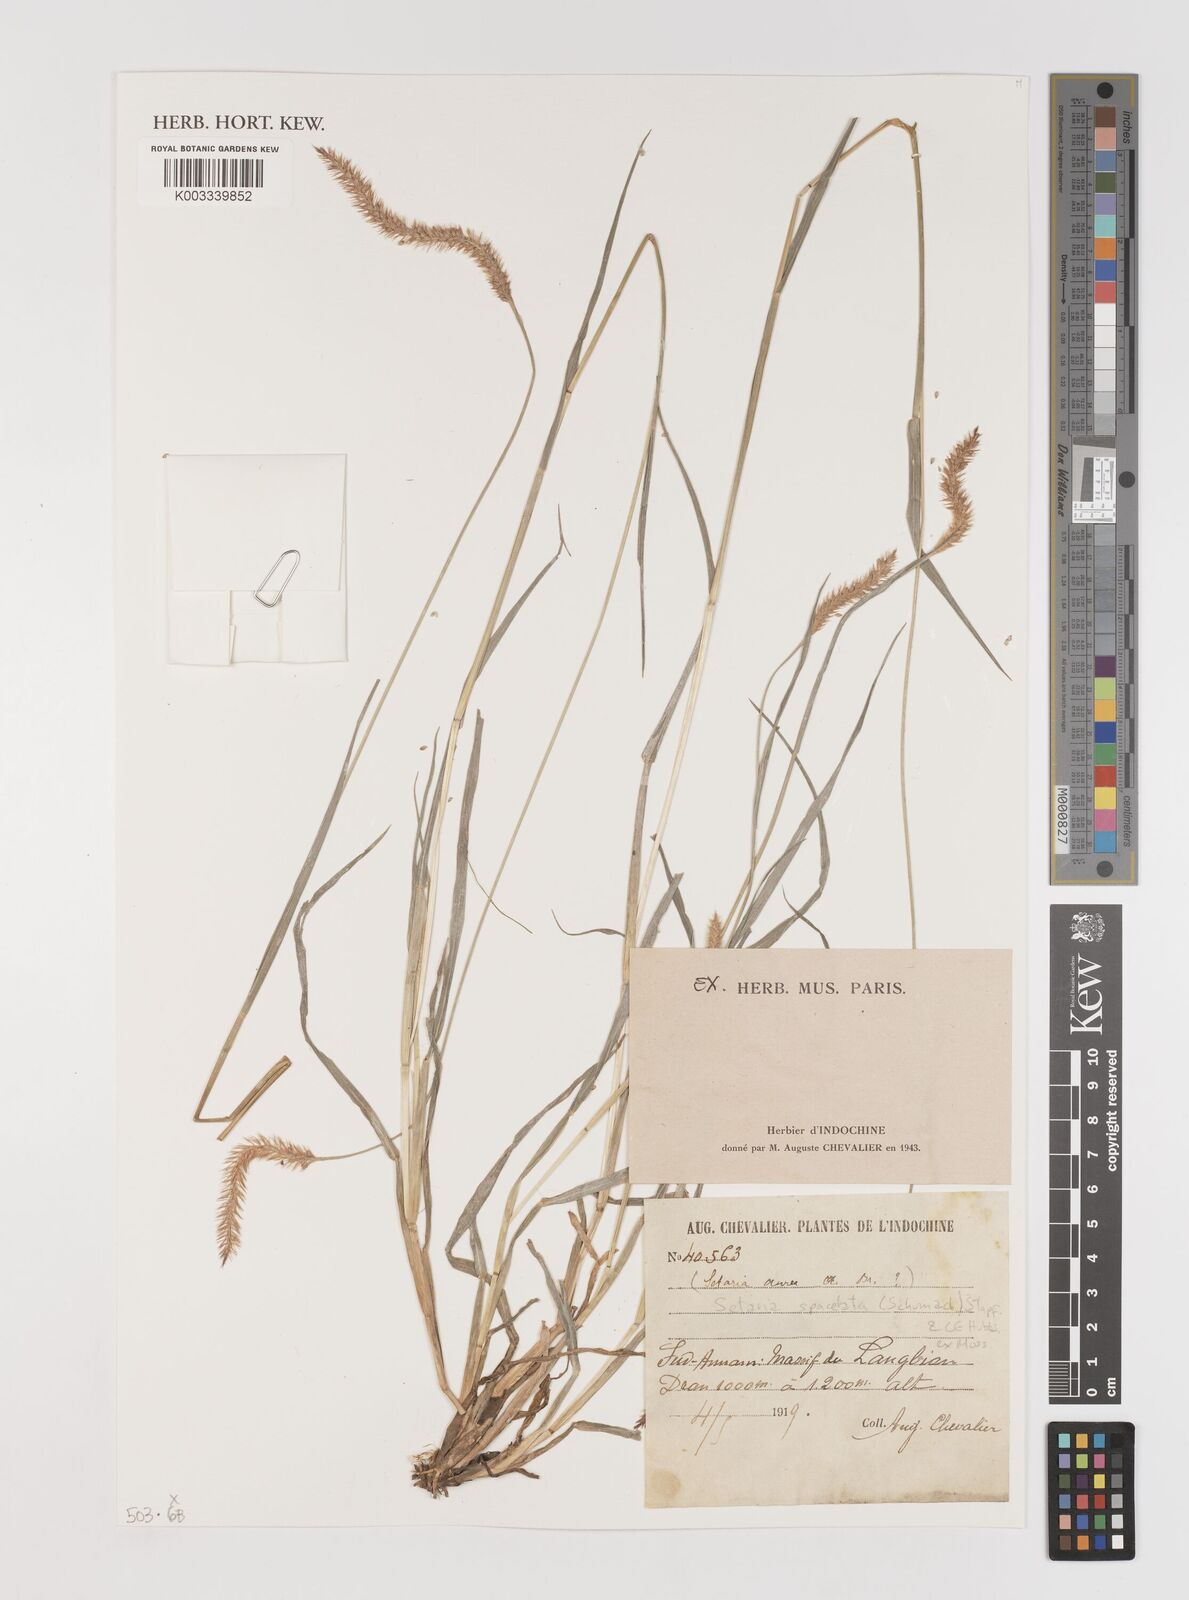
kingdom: Plantae
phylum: Tracheophyta
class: Liliopsida
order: Poales
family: Poaceae
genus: Setaria
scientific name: Setaria
